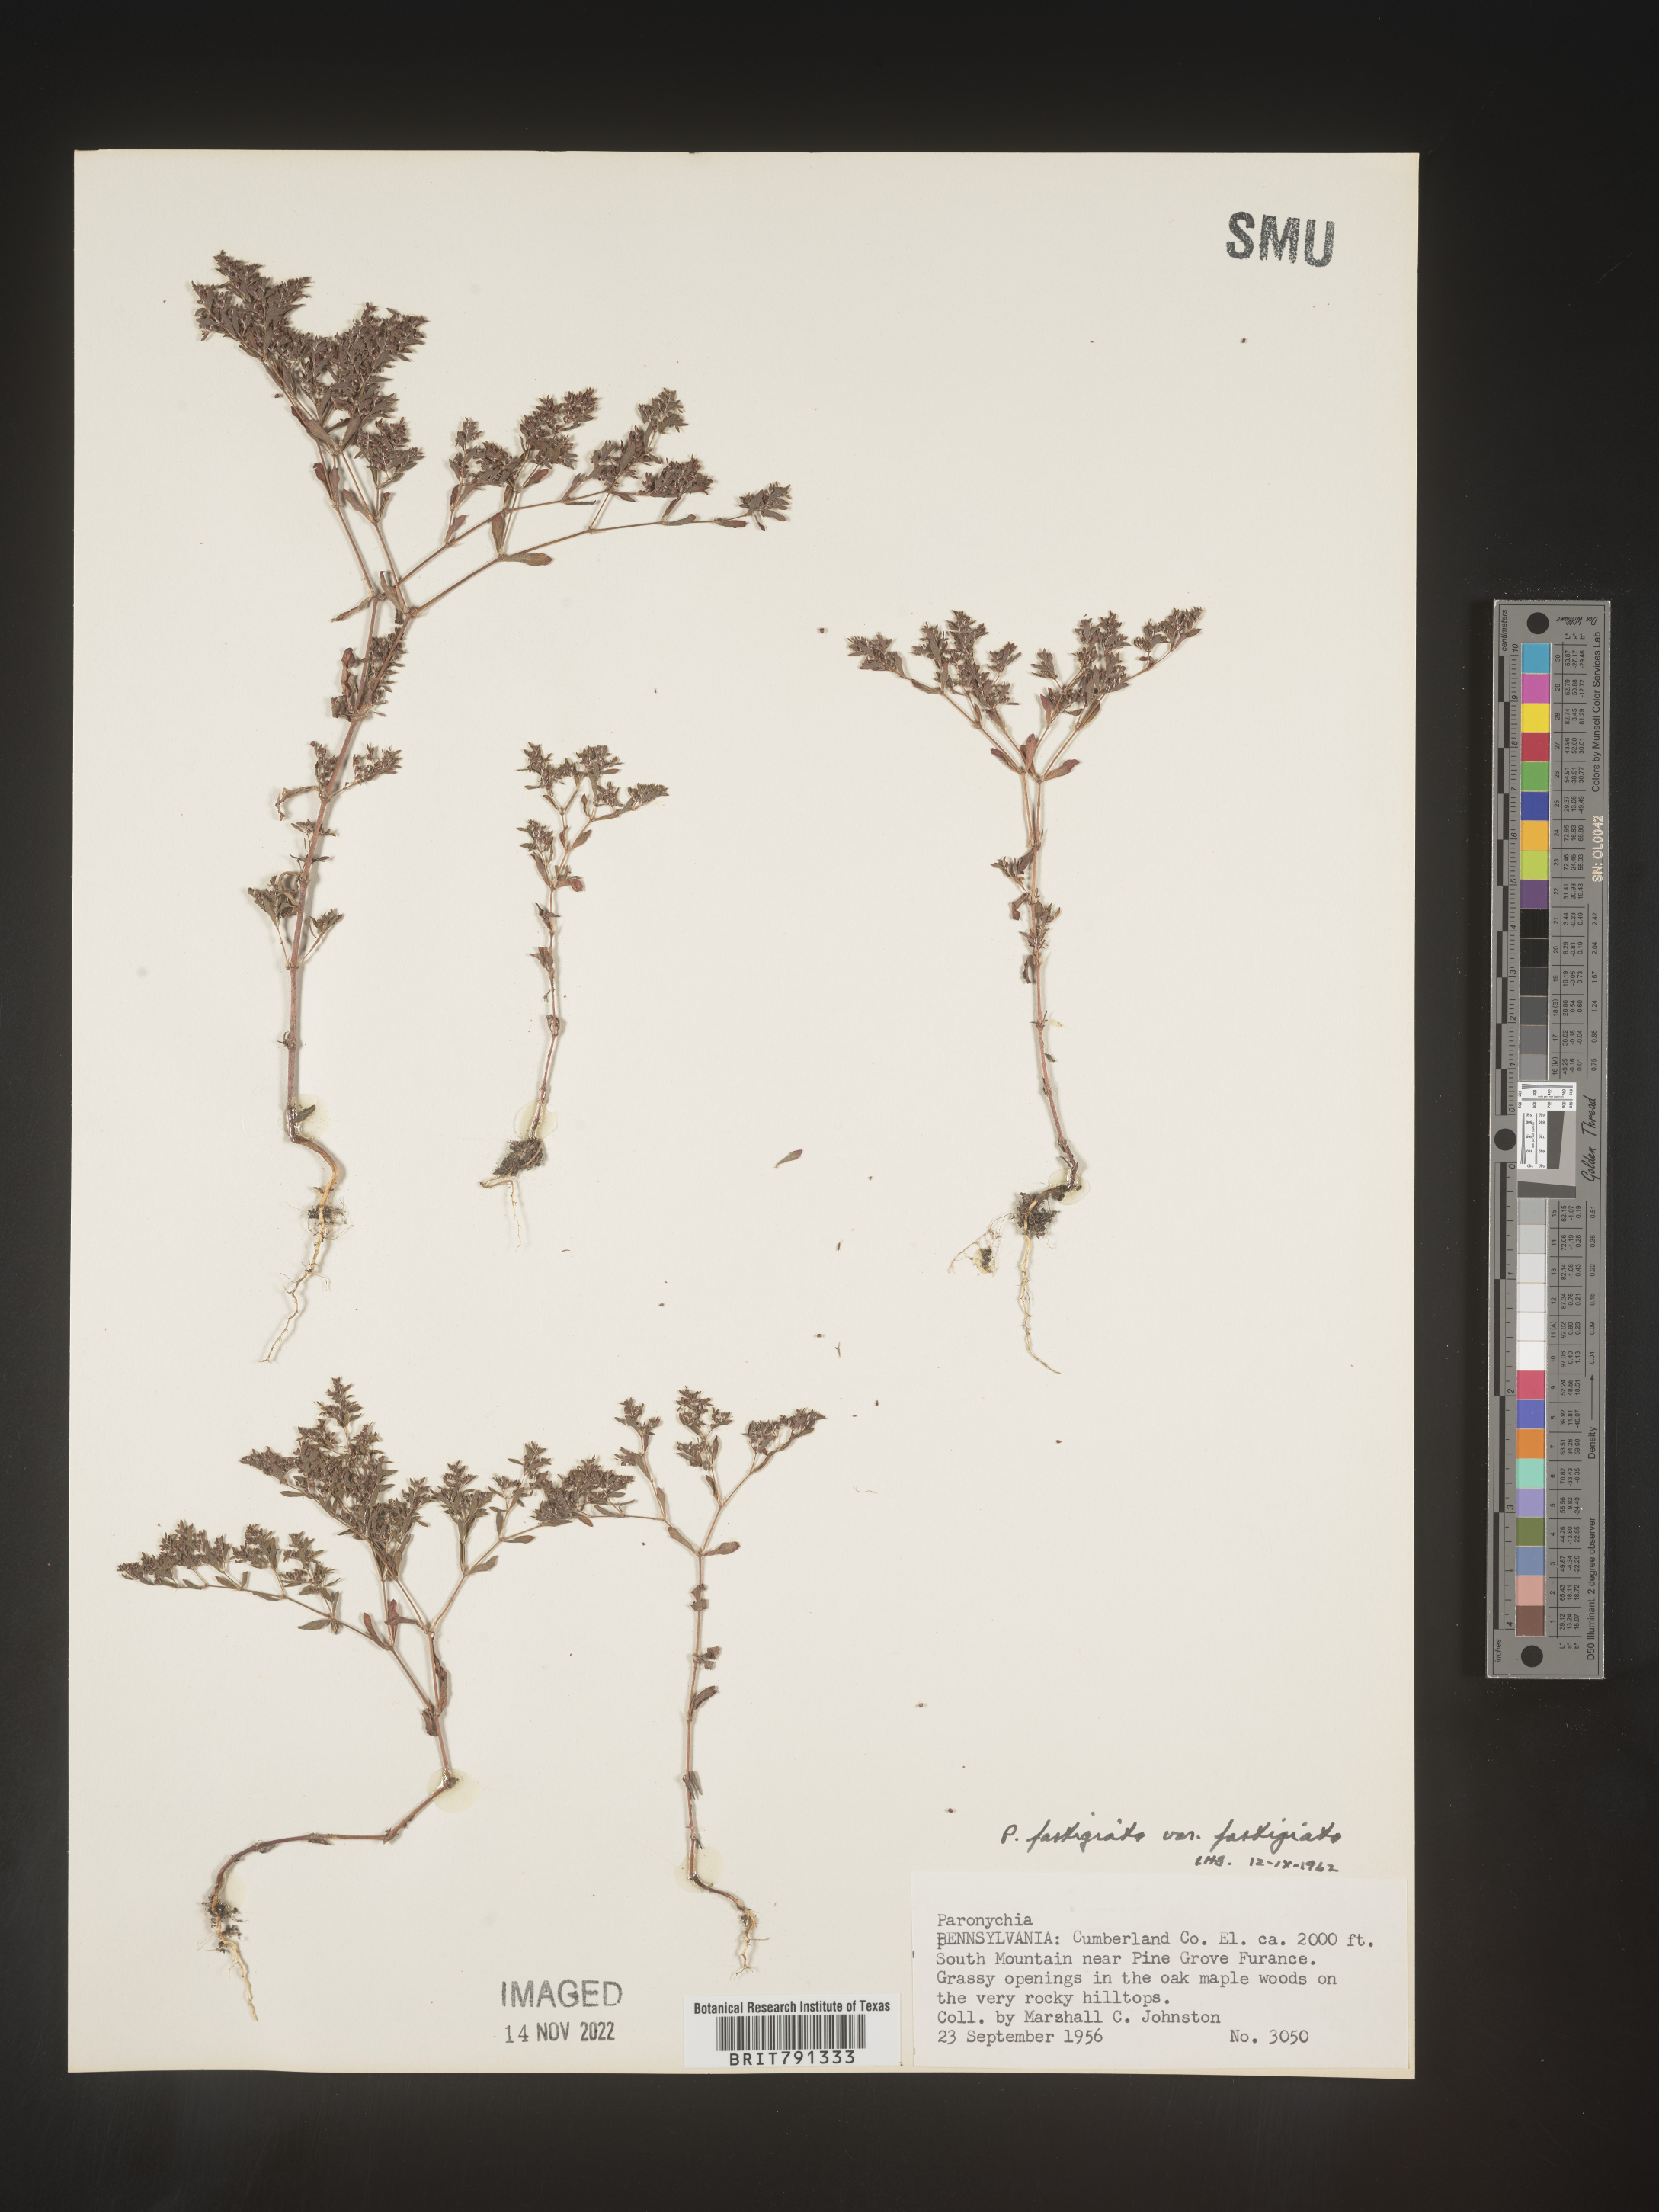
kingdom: Plantae
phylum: Tracheophyta
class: Magnoliopsida
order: Caryophyllales
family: Caryophyllaceae
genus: Paronychia
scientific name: Paronychia fastigiata
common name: Branching forked whitlow-wort
